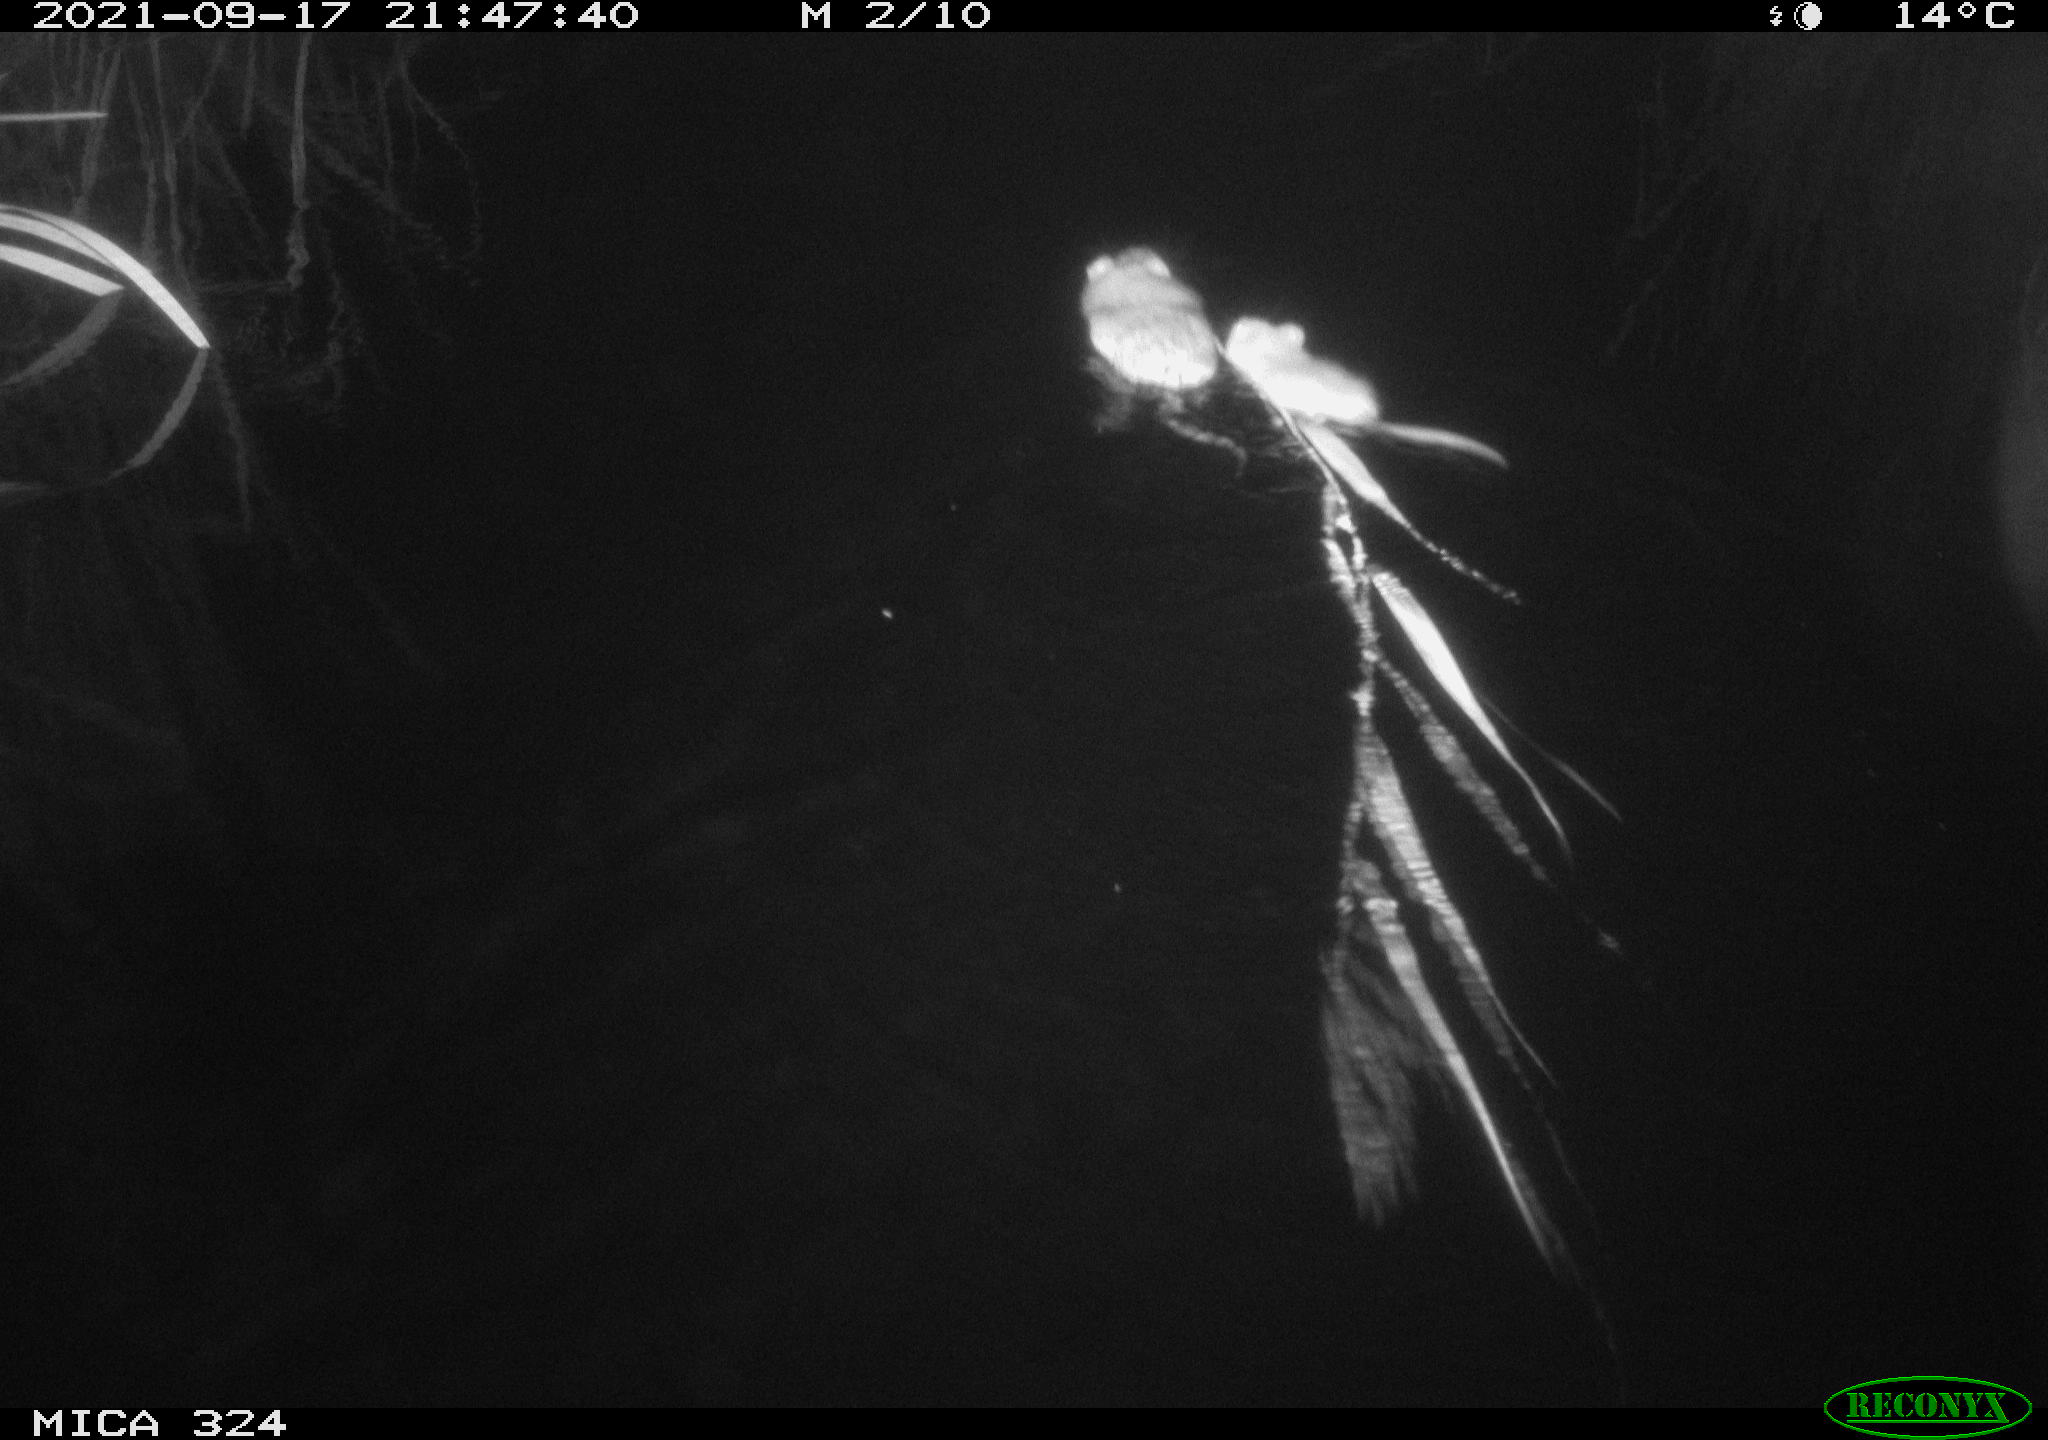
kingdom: Animalia
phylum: Chordata
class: Mammalia
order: Rodentia
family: Cricetidae
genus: Ondatra
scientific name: Ondatra zibethicus
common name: Muskrat
